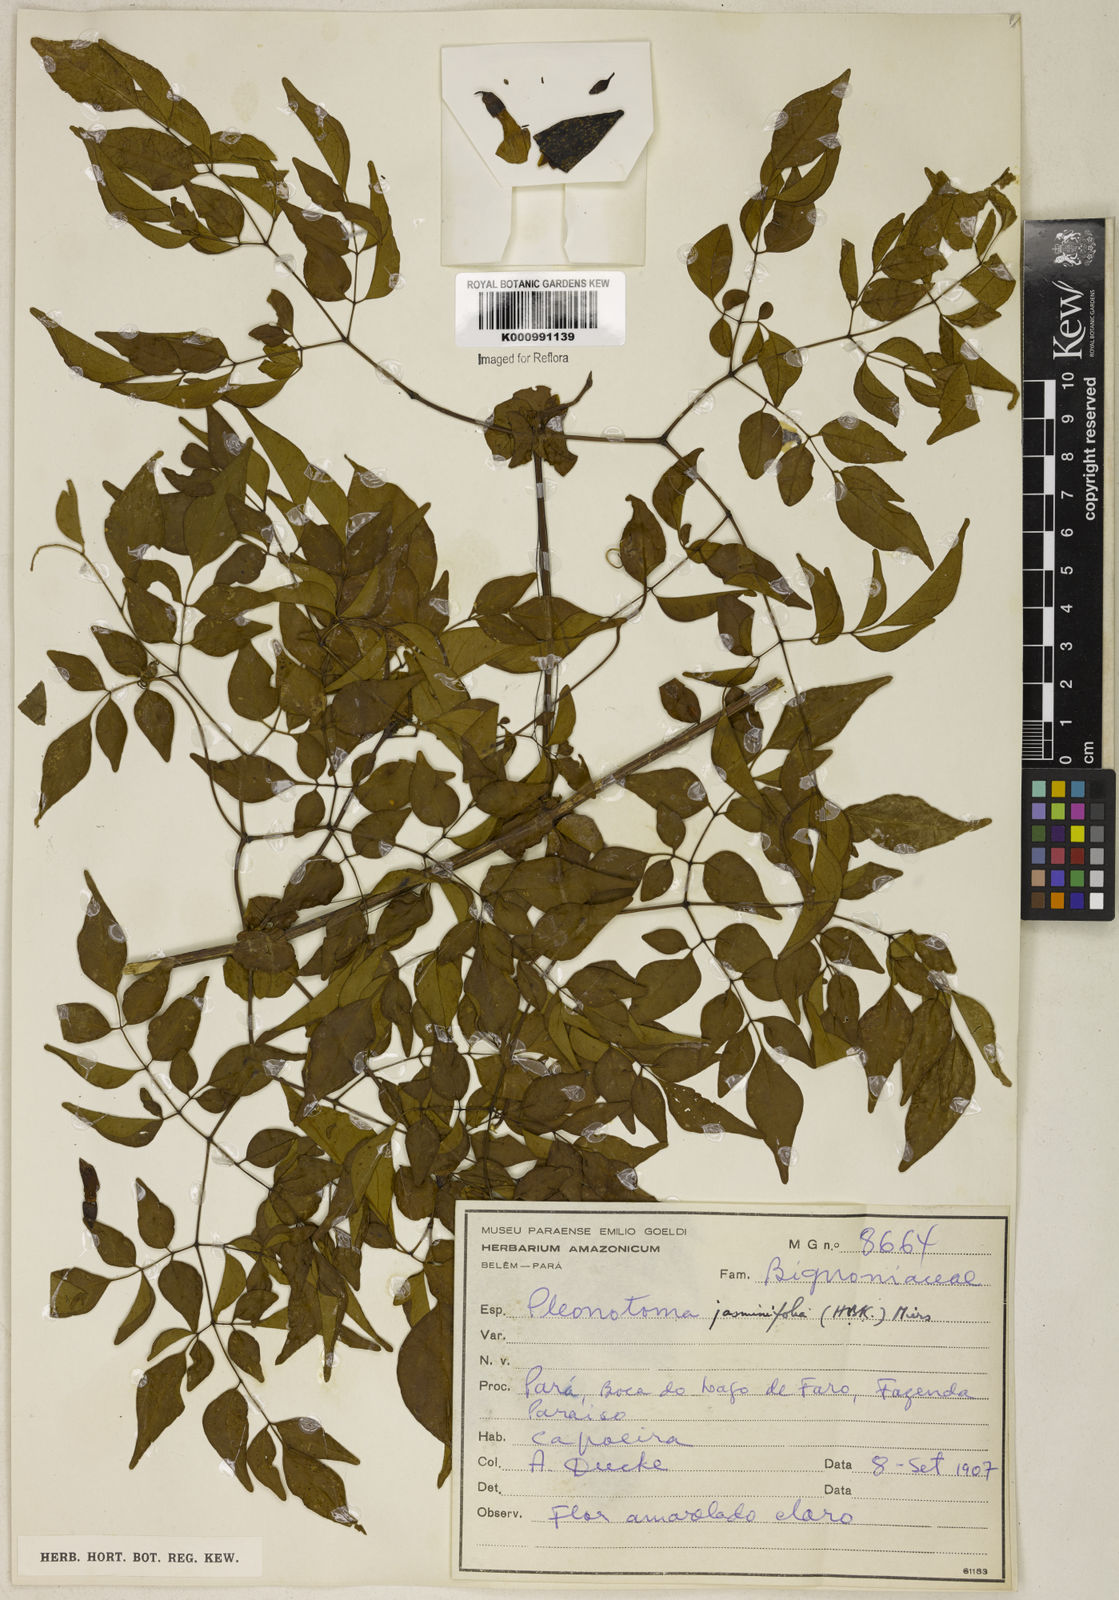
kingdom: Plantae
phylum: Tracheophyta
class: Magnoliopsida
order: Lamiales
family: Bignoniaceae
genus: Pleonotoma
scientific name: Pleonotoma jasminifolia
